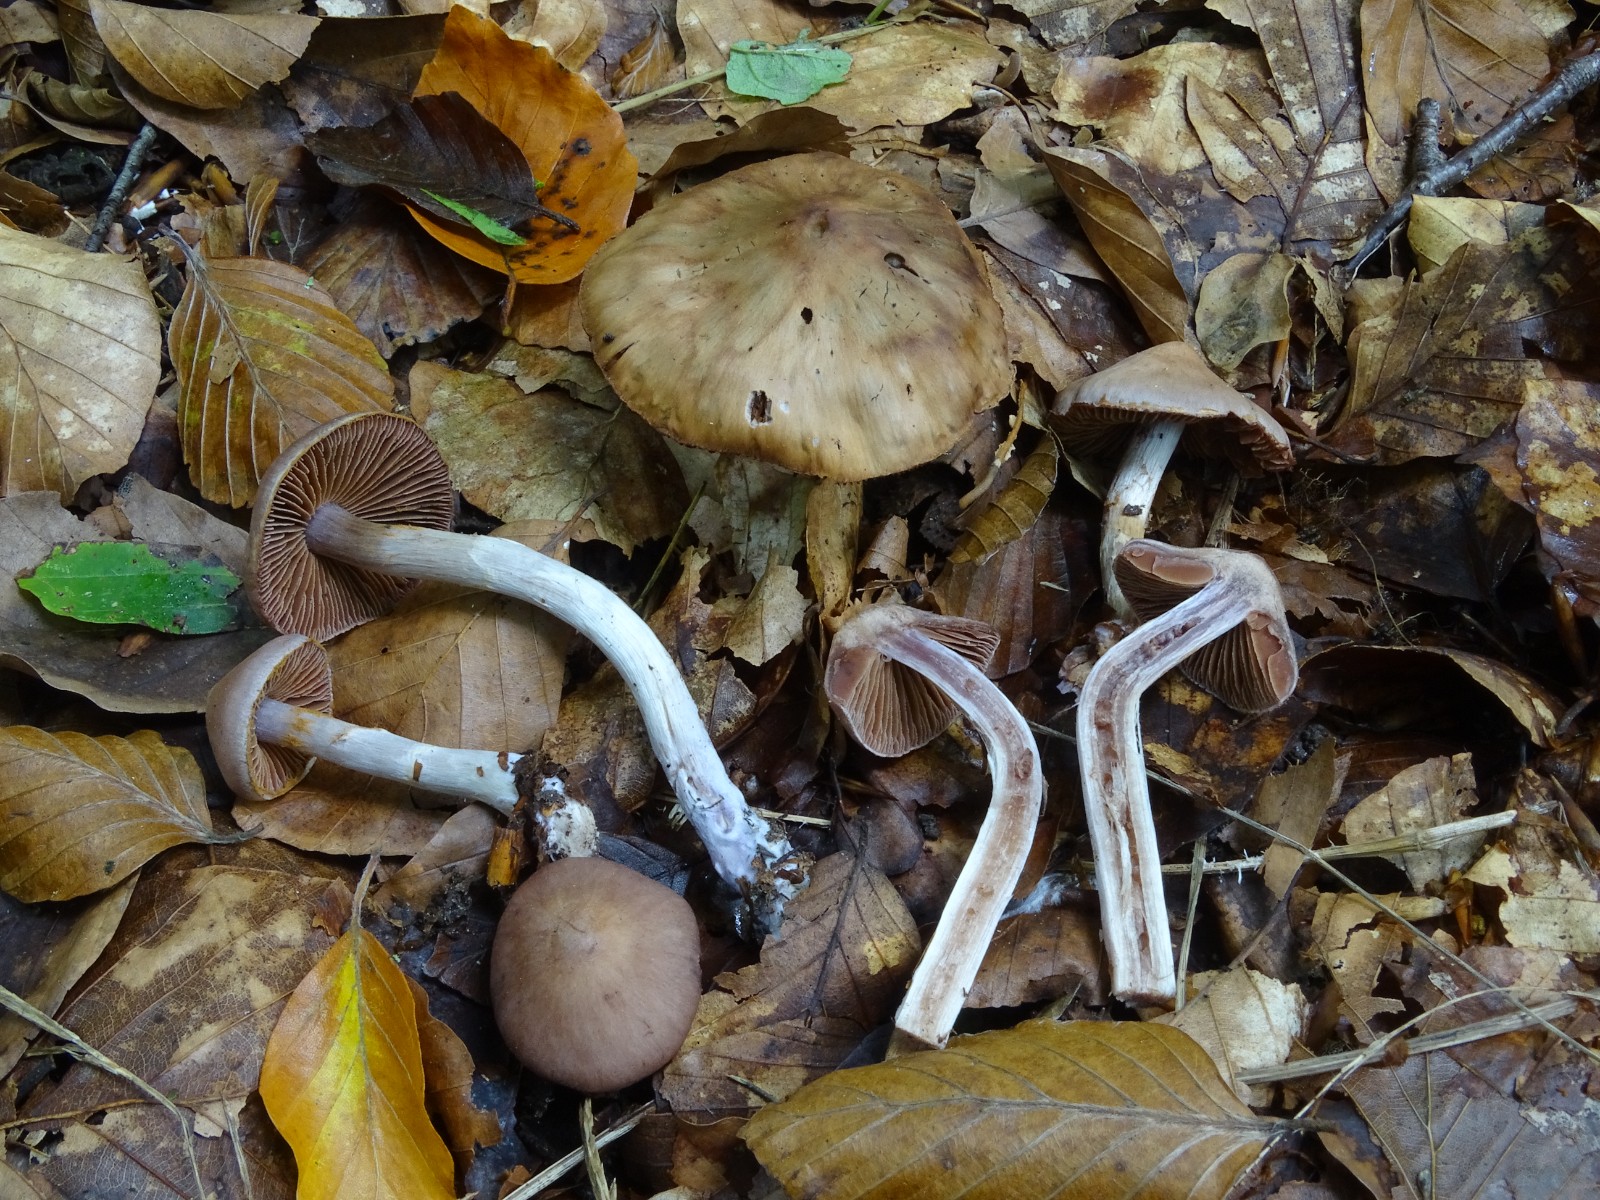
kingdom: Fungi
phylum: Basidiomycota
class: Agaricomycetes
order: Agaricales
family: Cortinariaceae
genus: Cortinarius
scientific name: Cortinarius glaphurus
